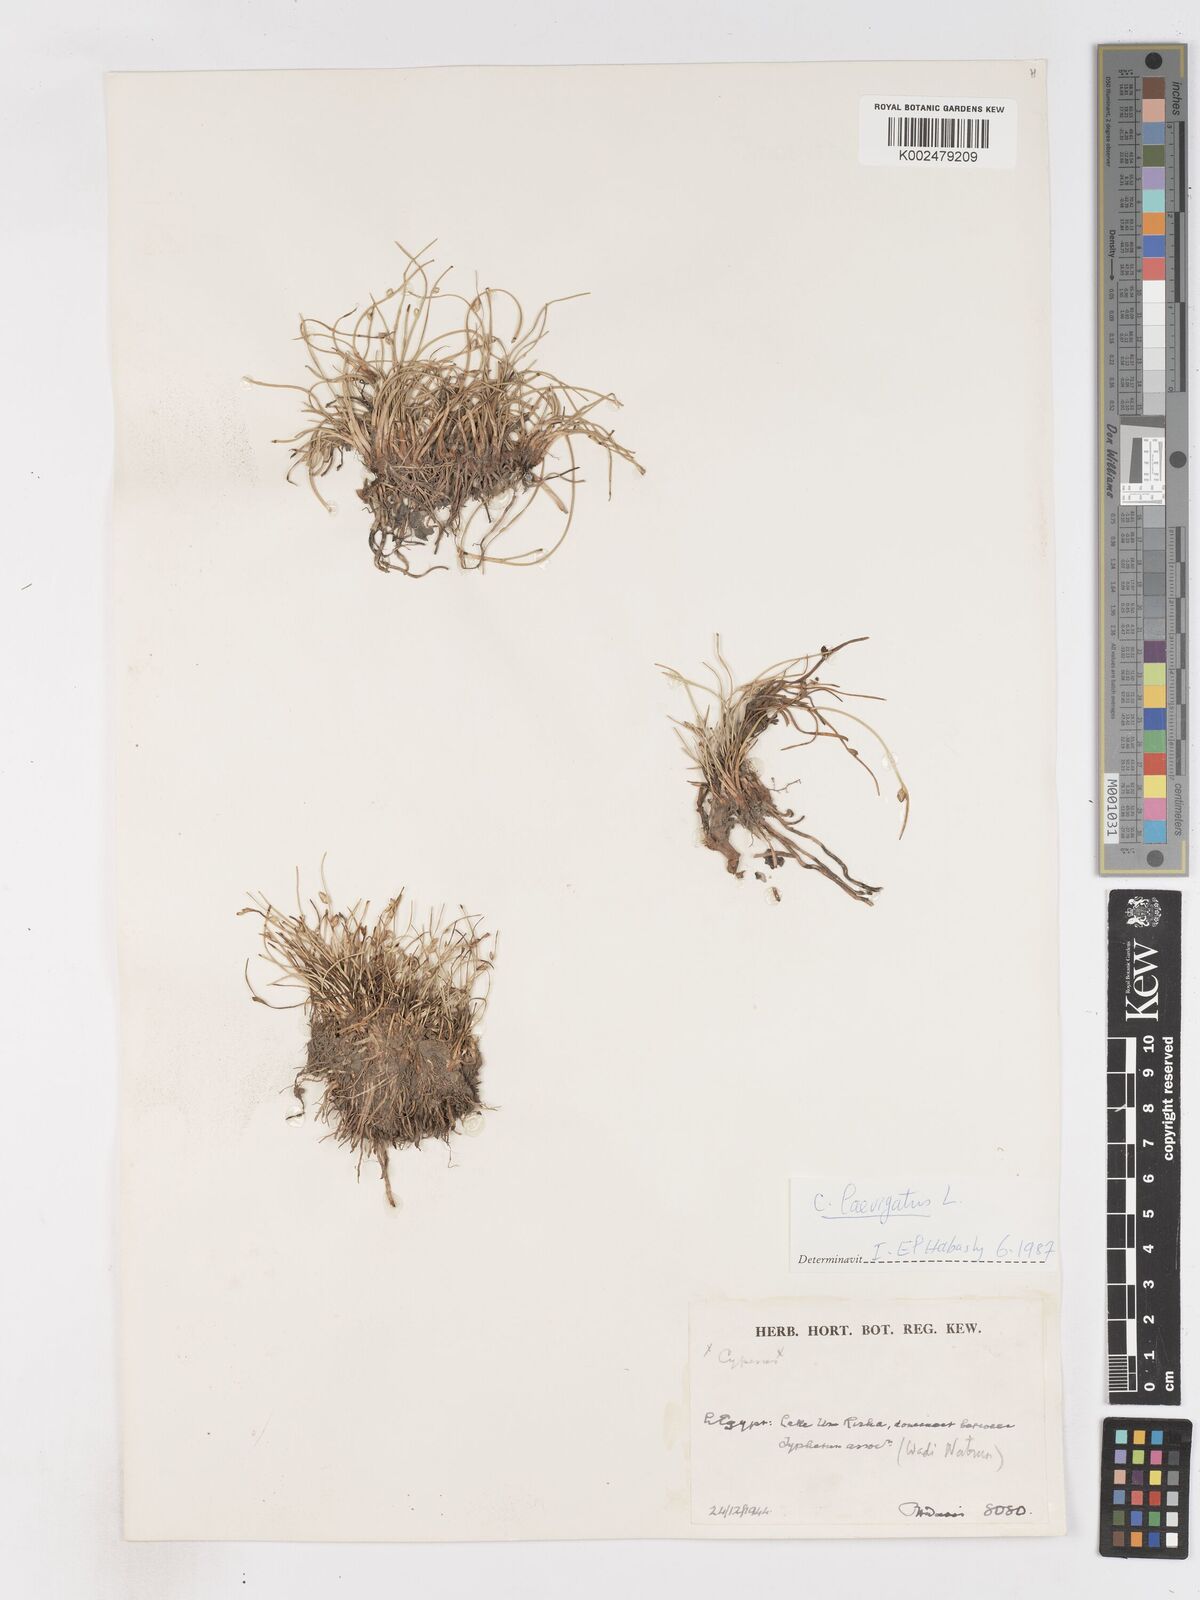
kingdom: Plantae
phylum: Tracheophyta
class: Liliopsida
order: Poales
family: Cyperaceae
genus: Cyperus
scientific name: Cyperus laevigatus
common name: Smooth flat sedge
